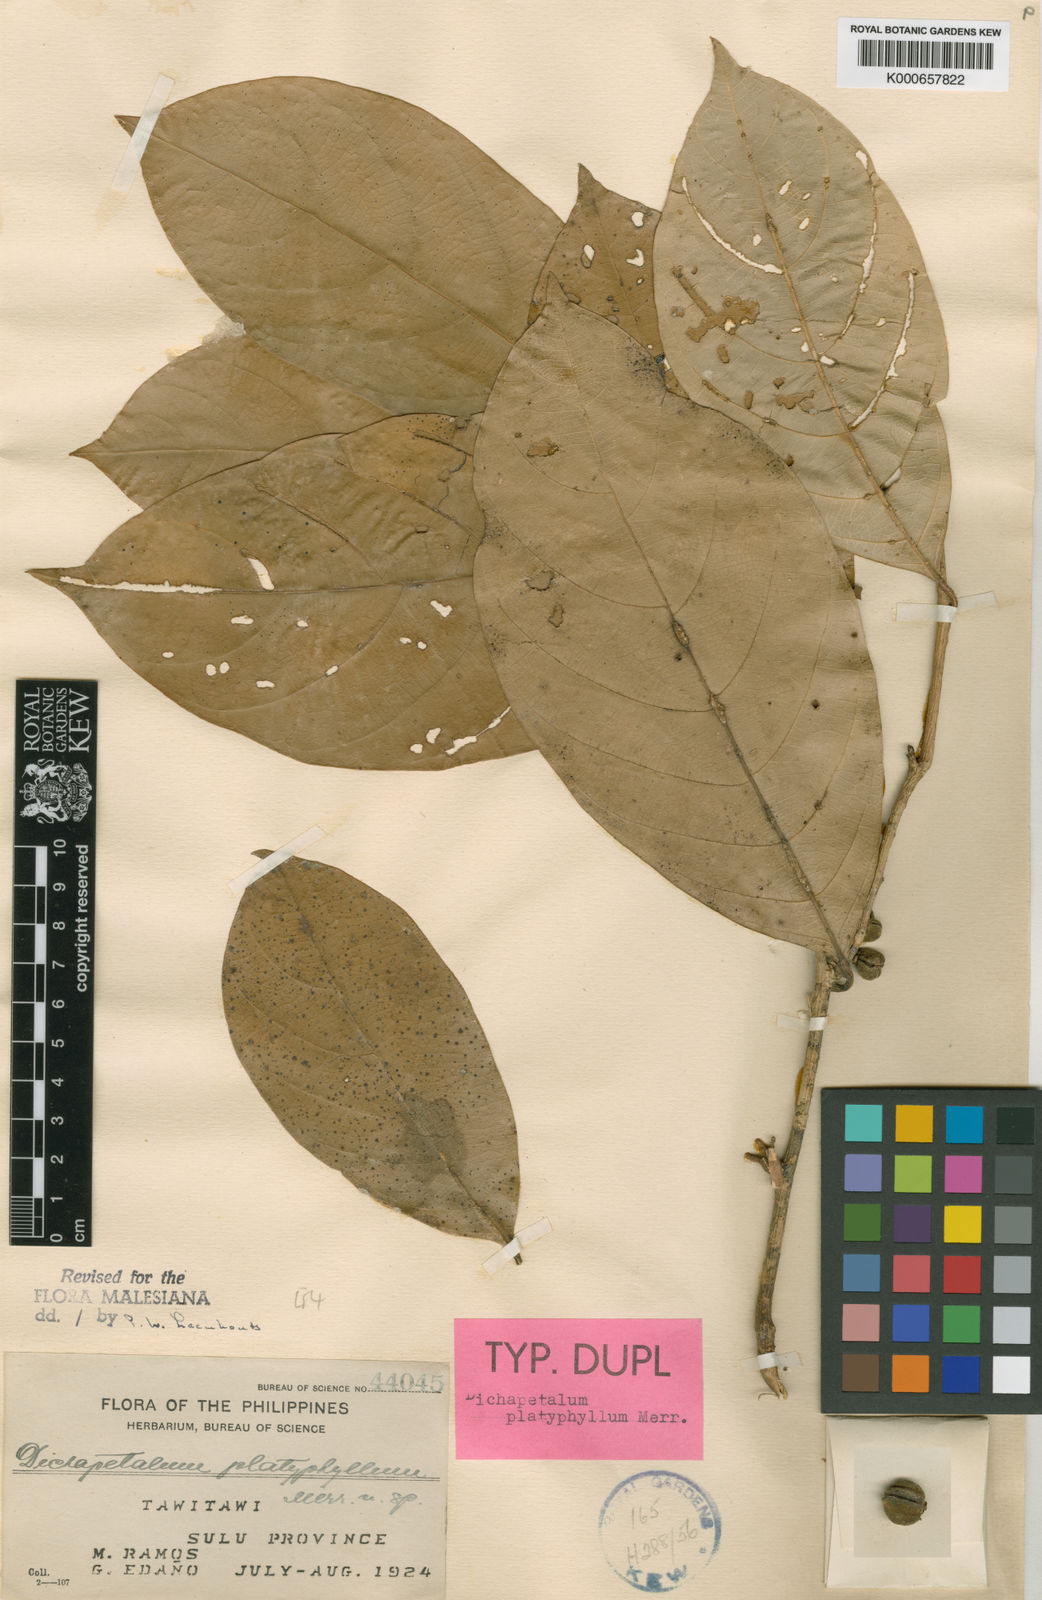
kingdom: Plantae
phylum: Tracheophyta
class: Magnoliopsida
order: Malpighiales
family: Dichapetalaceae
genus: Dichapetalum
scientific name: Dichapetalum platyphyllum
